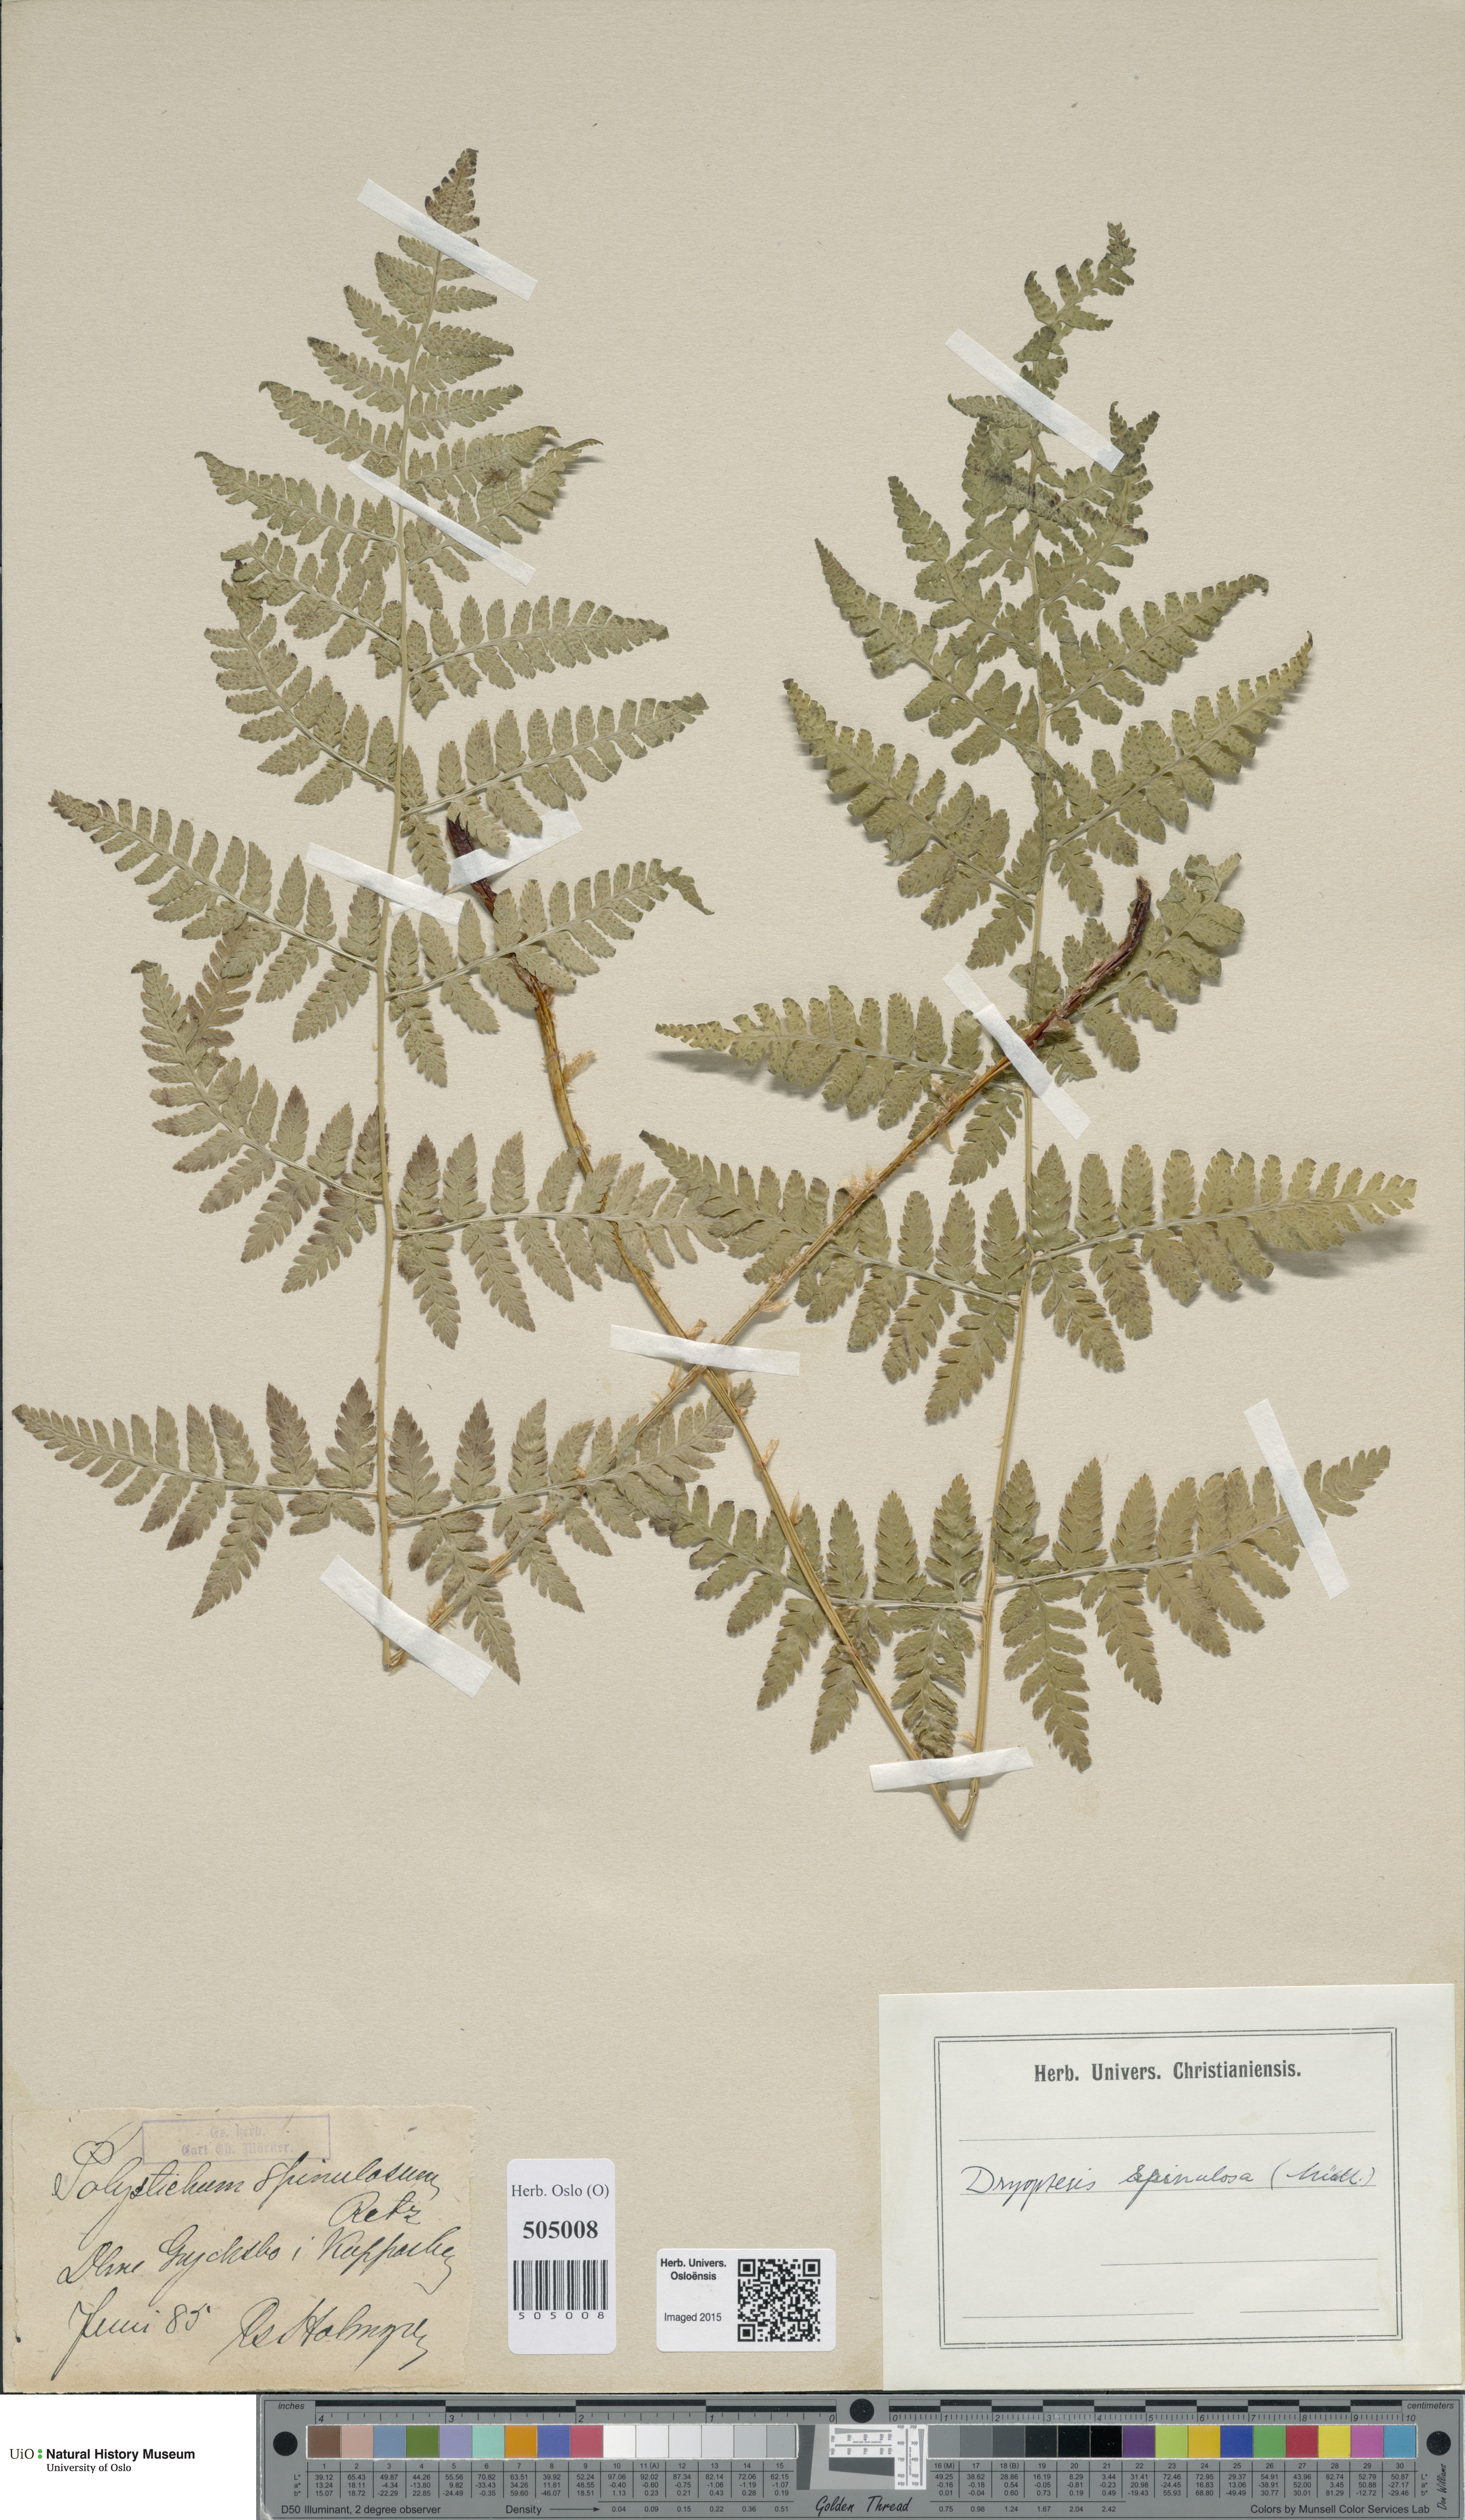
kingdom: Plantae
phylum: Tracheophyta
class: Polypodiopsida
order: Polypodiales
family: Dryopteridaceae
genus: Dryopteris
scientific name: Dryopteris carthusiana
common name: Narrow buckler-fern
